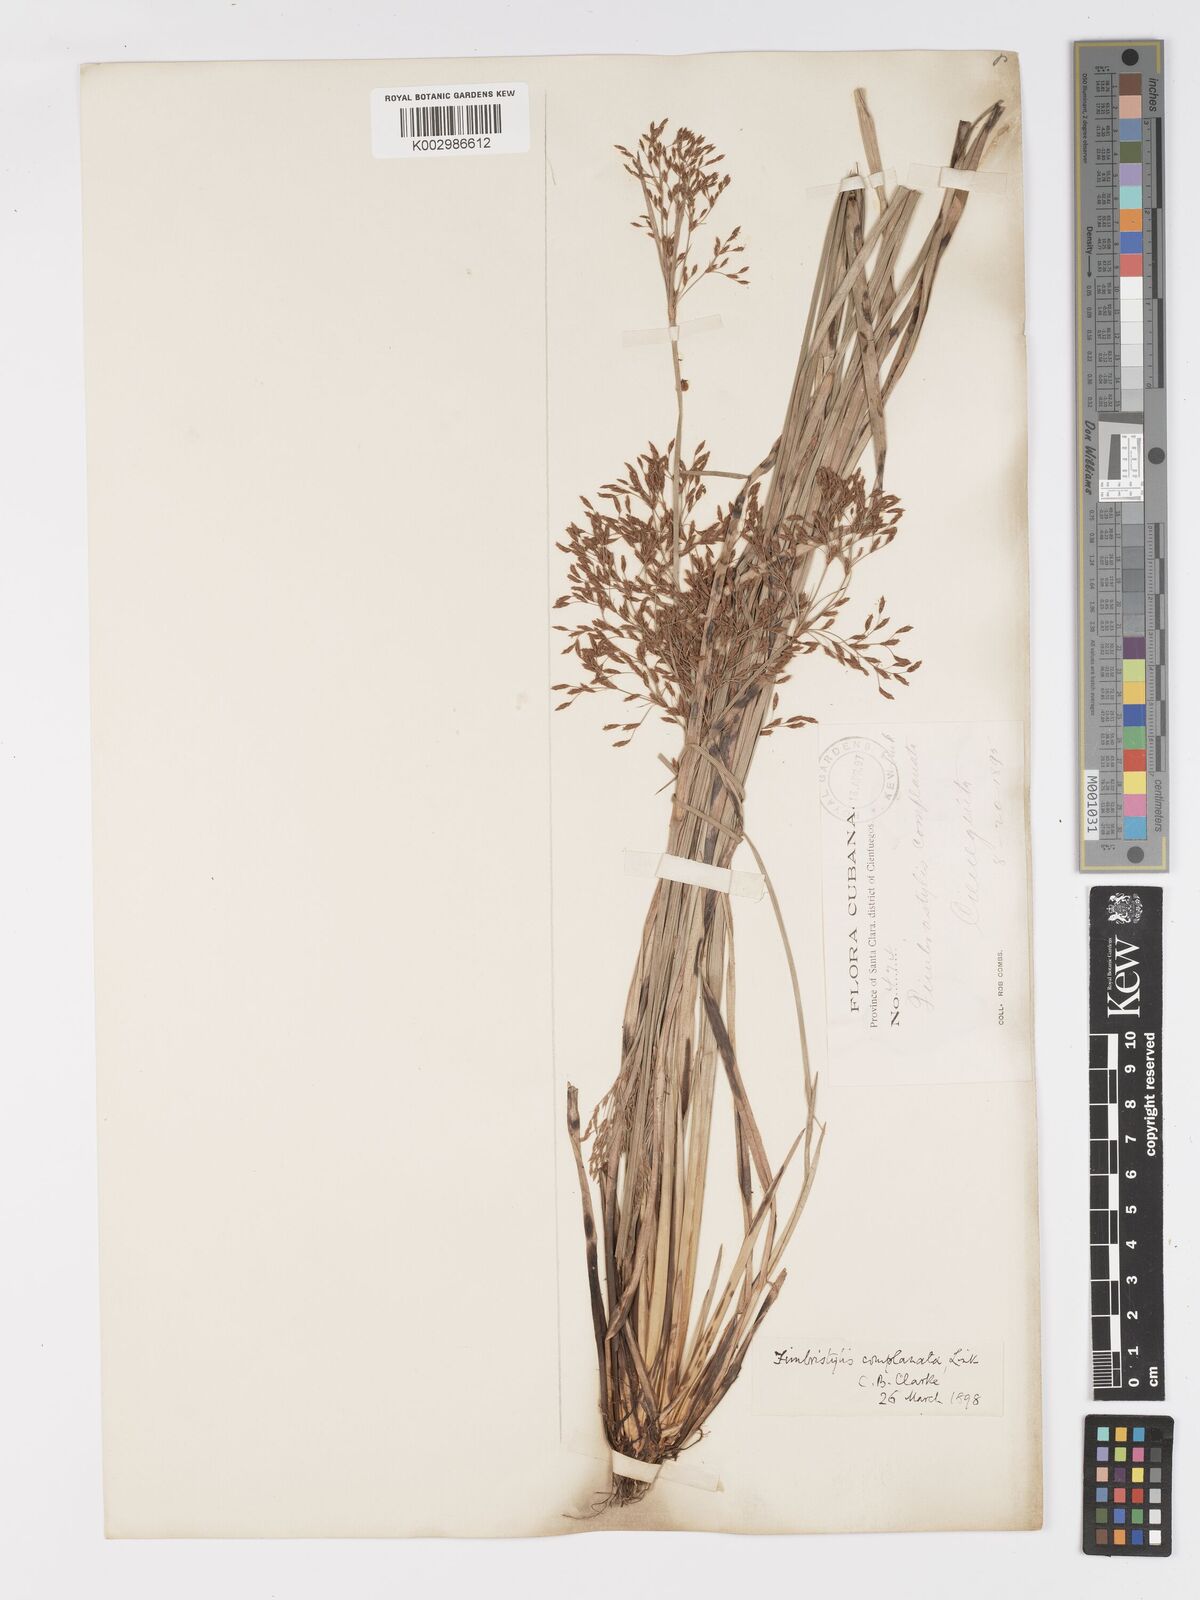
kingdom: Plantae
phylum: Tracheophyta
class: Liliopsida
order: Poales
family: Cyperaceae
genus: Fimbristylis
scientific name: Fimbristylis complanata
